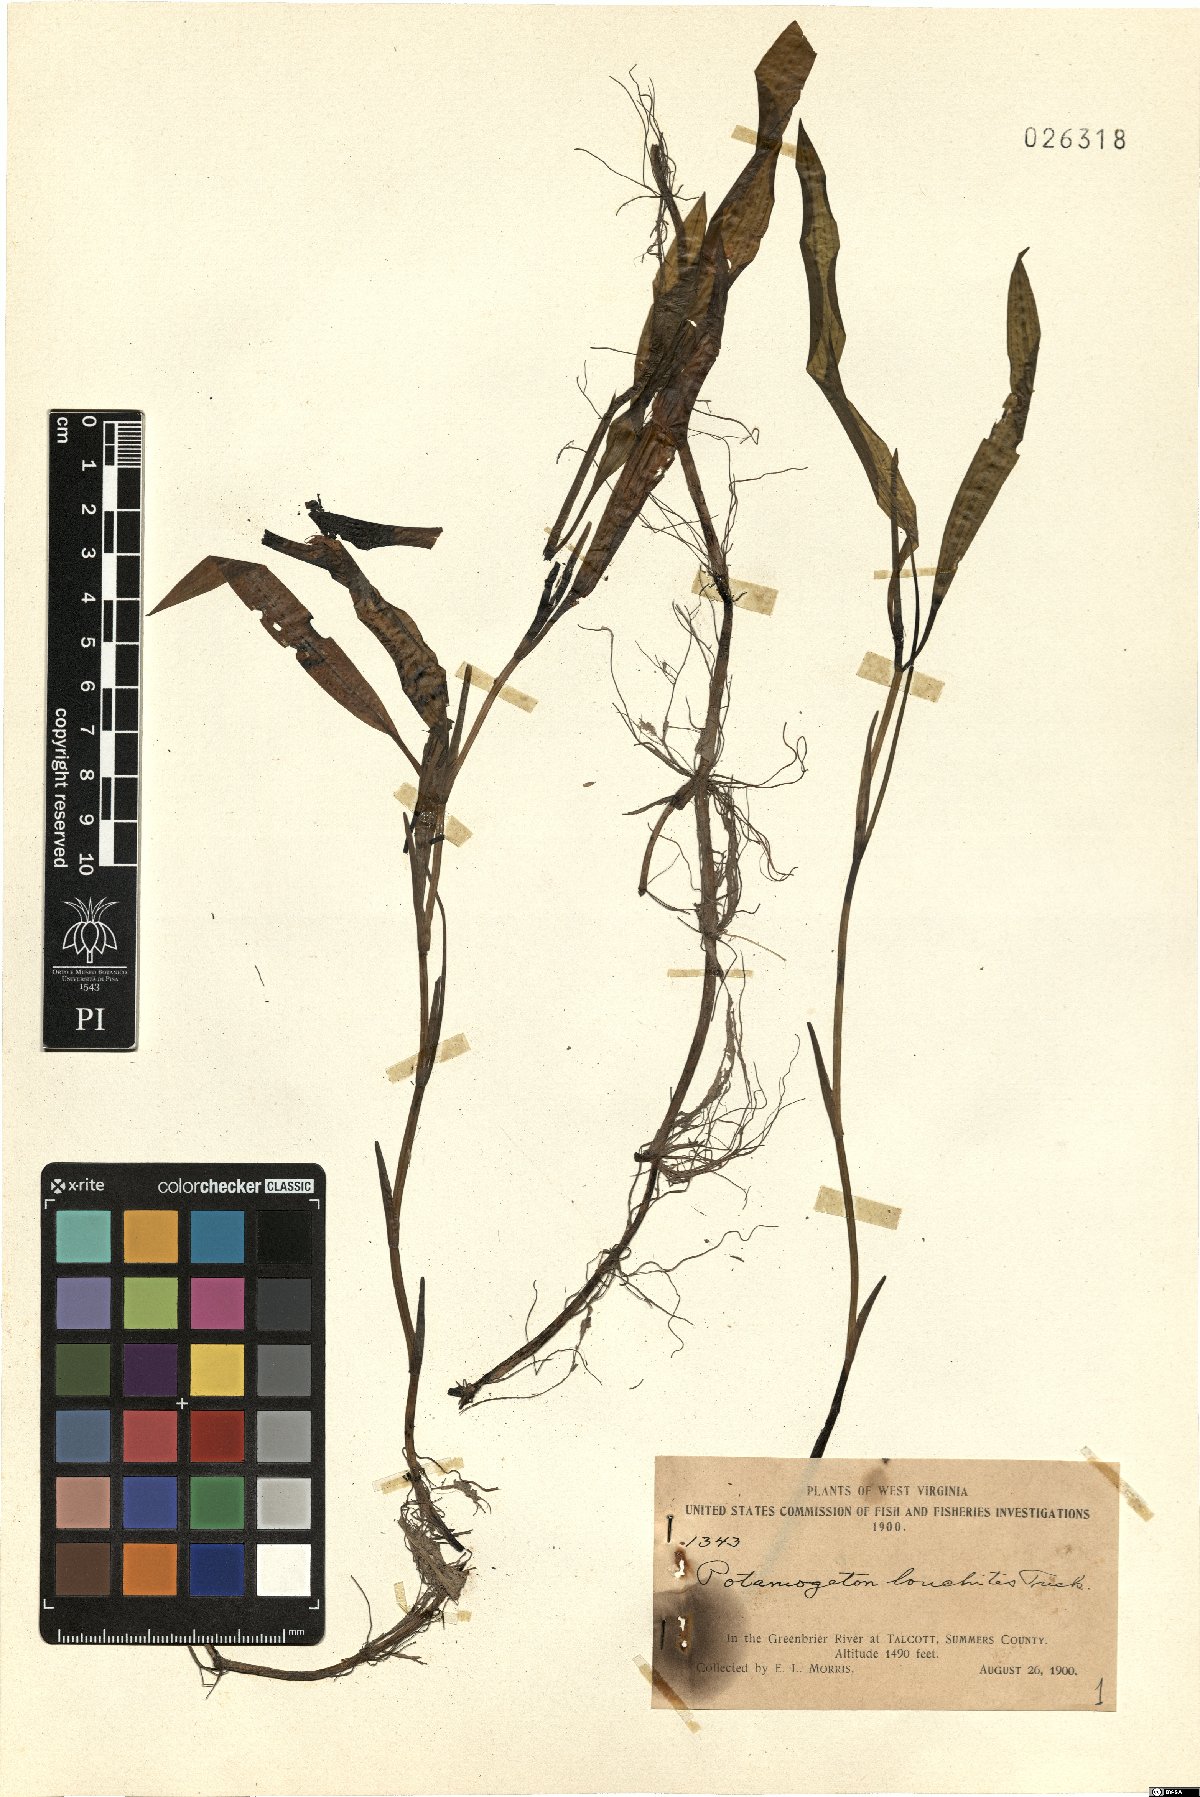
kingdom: Plantae
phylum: Tracheophyta
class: Liliopsida
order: Alismatales
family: Potamogetonaceae
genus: Potamogeton
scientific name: Potamogeton gramineus
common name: Various-leaved pondweed
